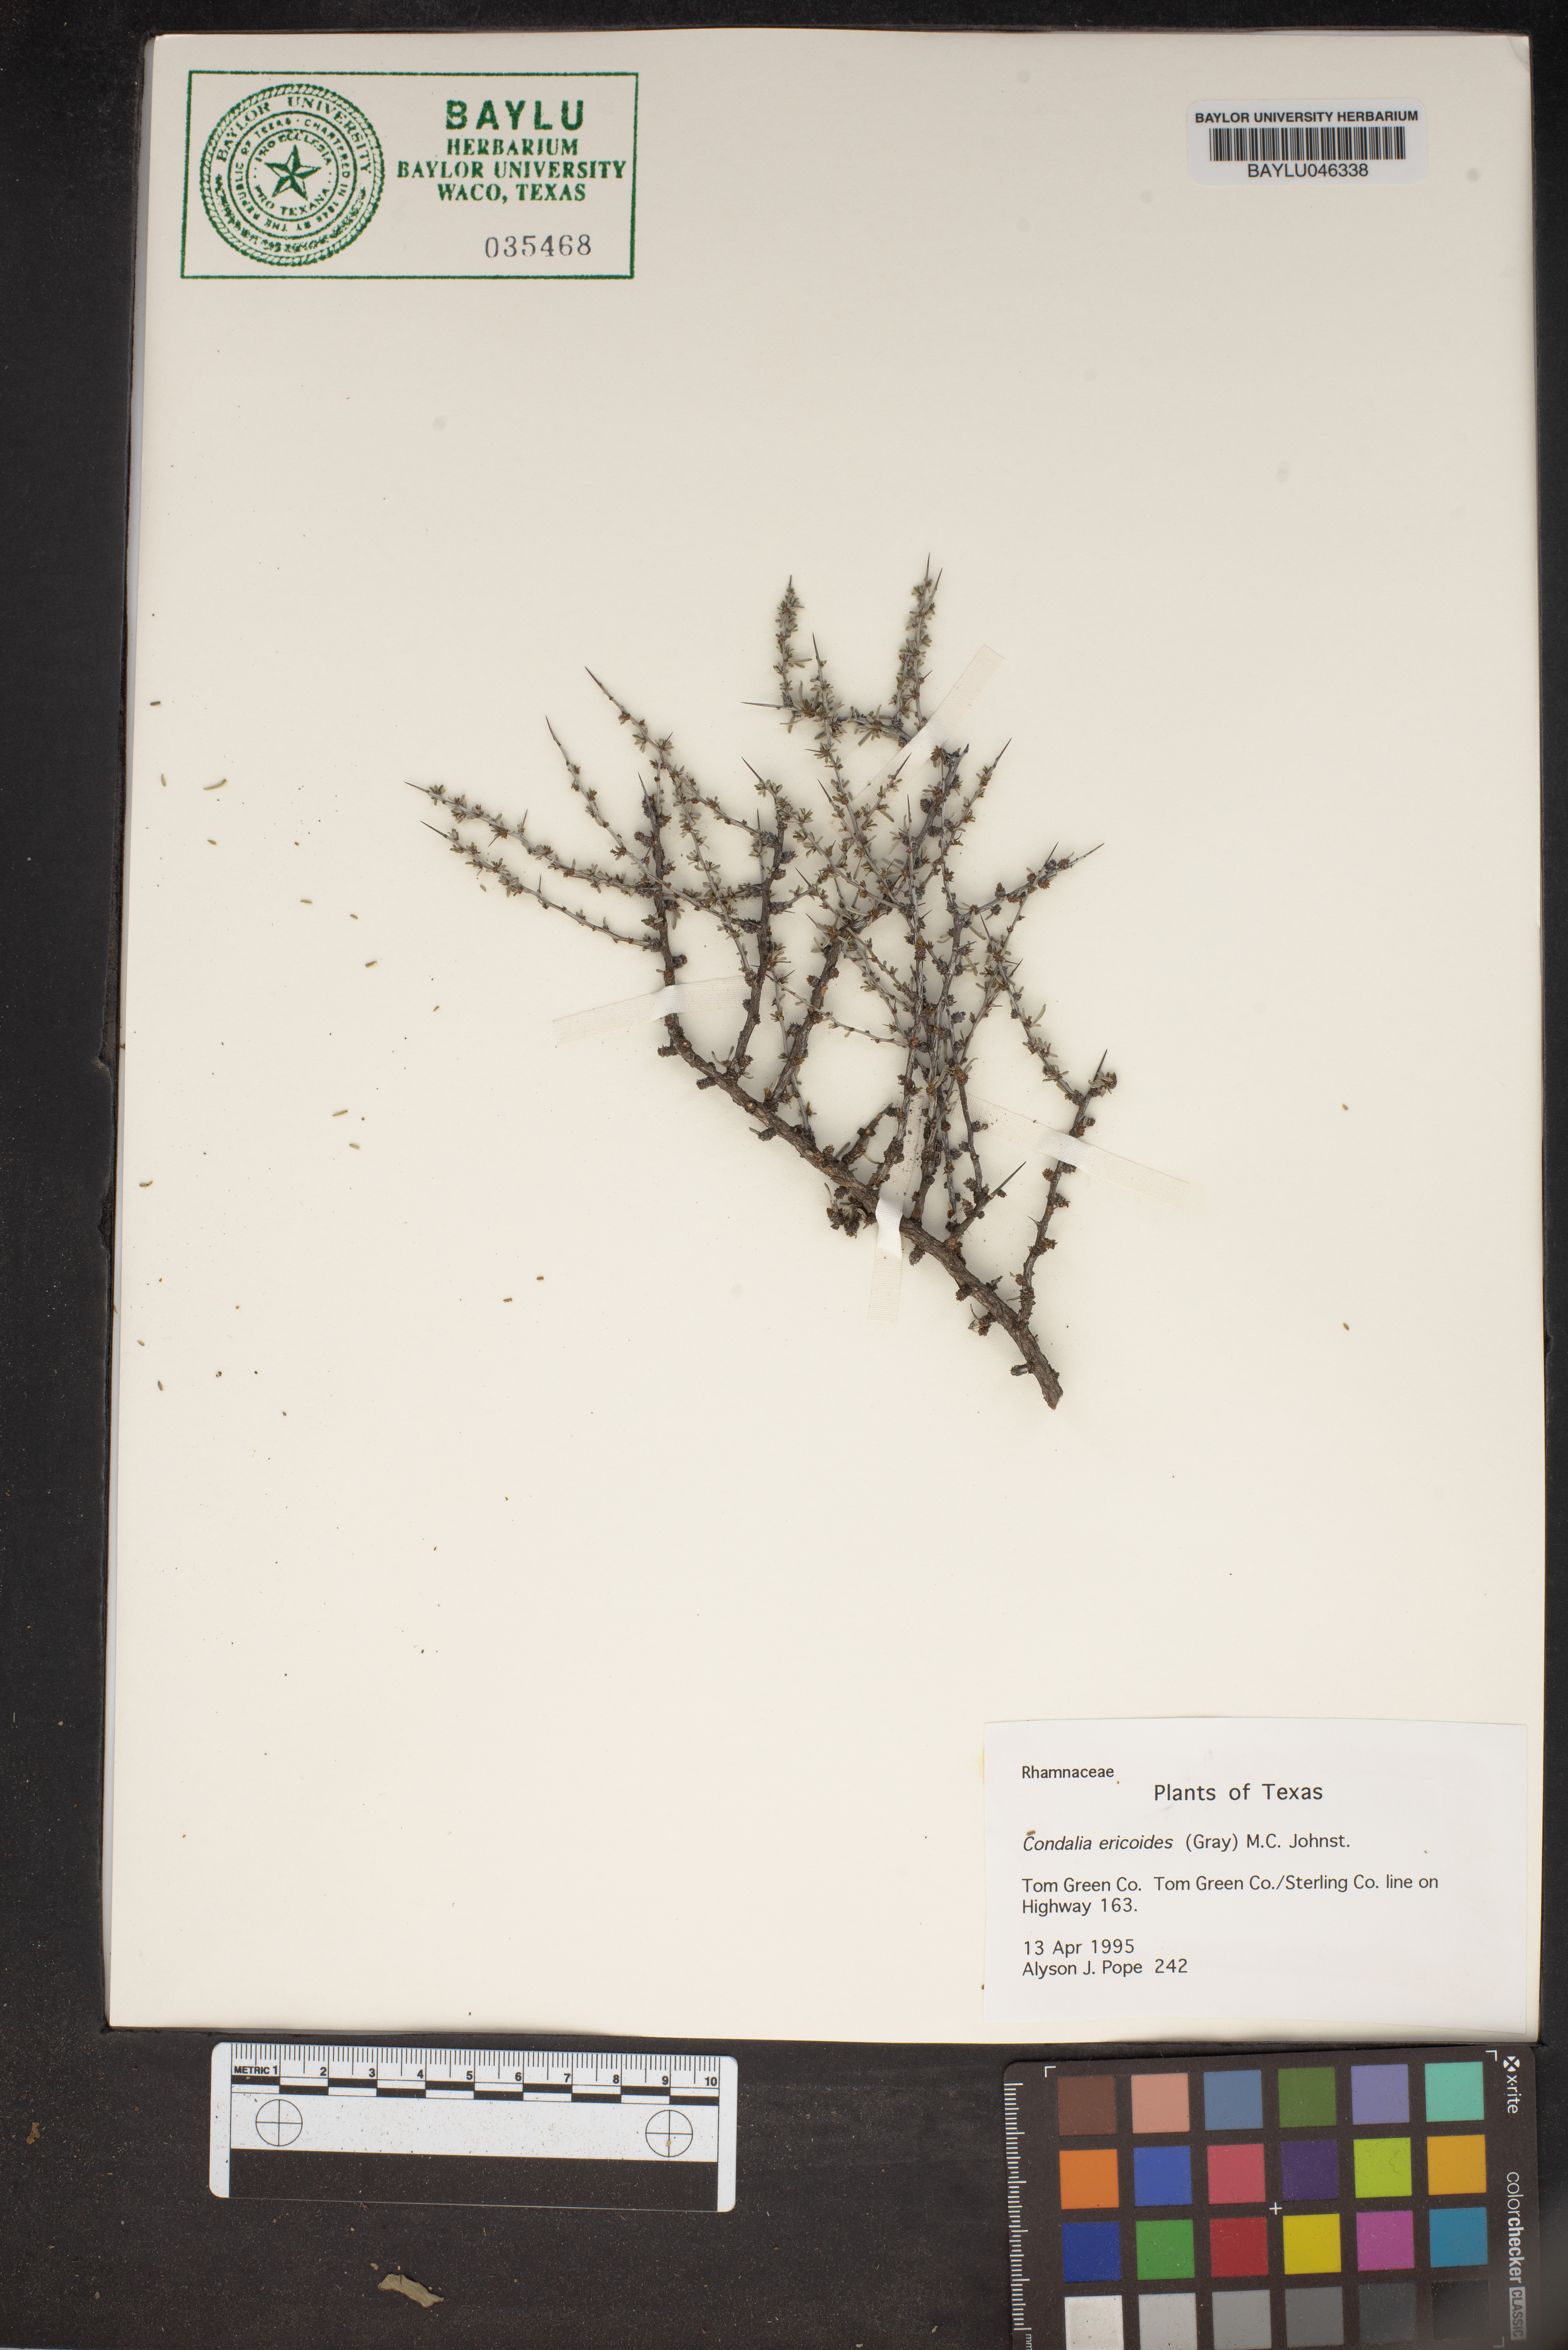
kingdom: Plantae
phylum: Tracheophyta
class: Magnoliopsida
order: Rosales
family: Rhamnaceae
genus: Condalia
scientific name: Condalia ericoides
